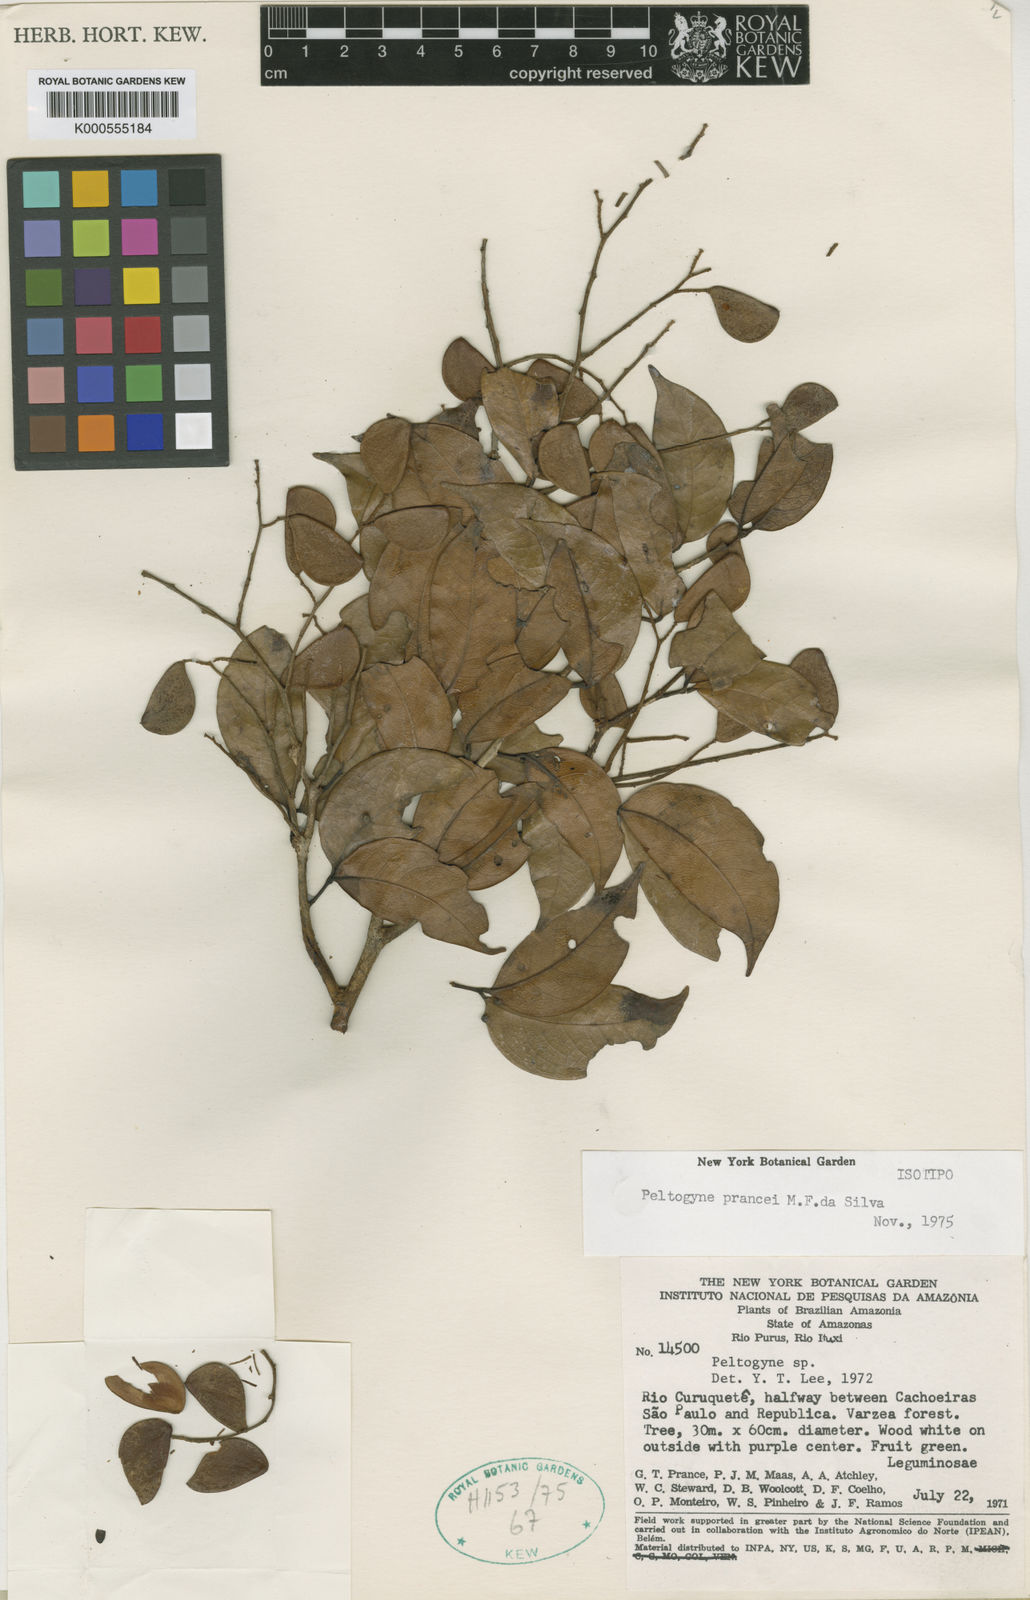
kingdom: Plantae
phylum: Tracheophyta
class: Magnoliopsida
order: Fabales
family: Fabaceae
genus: Peltogyne
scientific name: Peltogyne prancei
